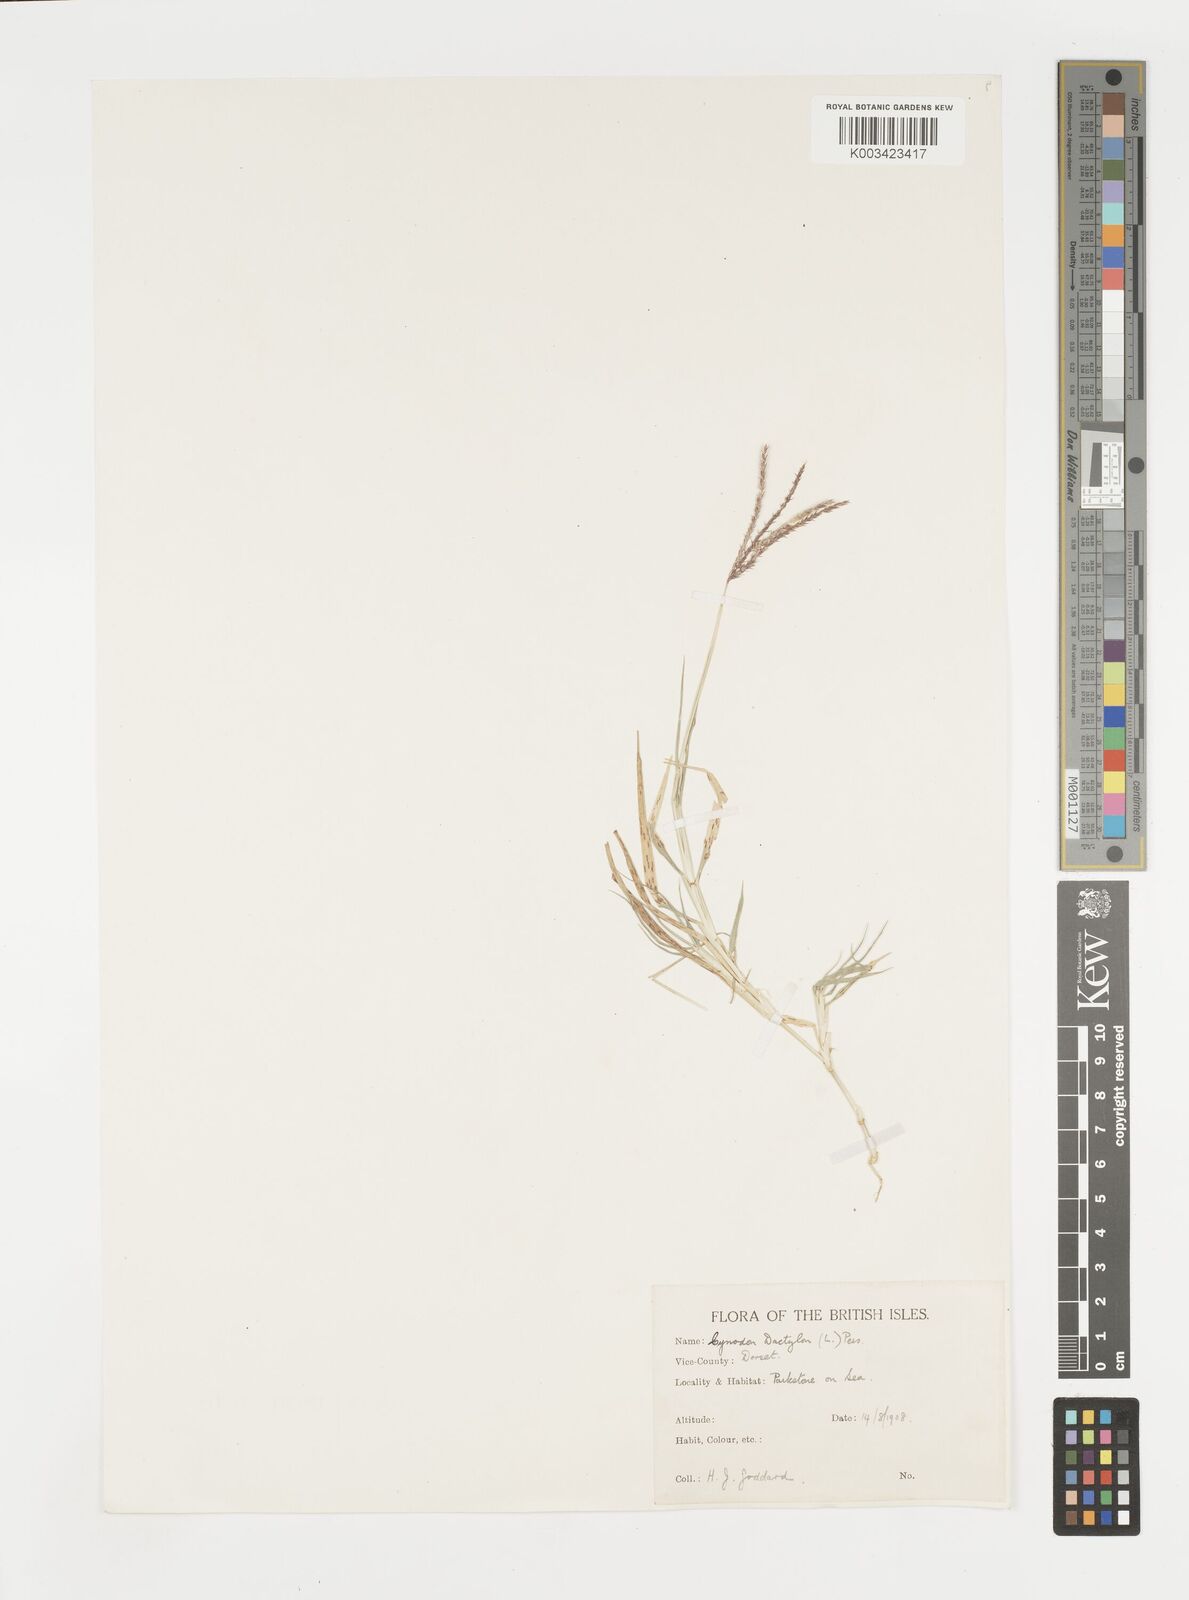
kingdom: Plantae
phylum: Tracheophyta
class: Liliopsida
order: Poales
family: Poaceae
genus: Cynodon
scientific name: Cynodon dactylon
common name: Bermuda grass
